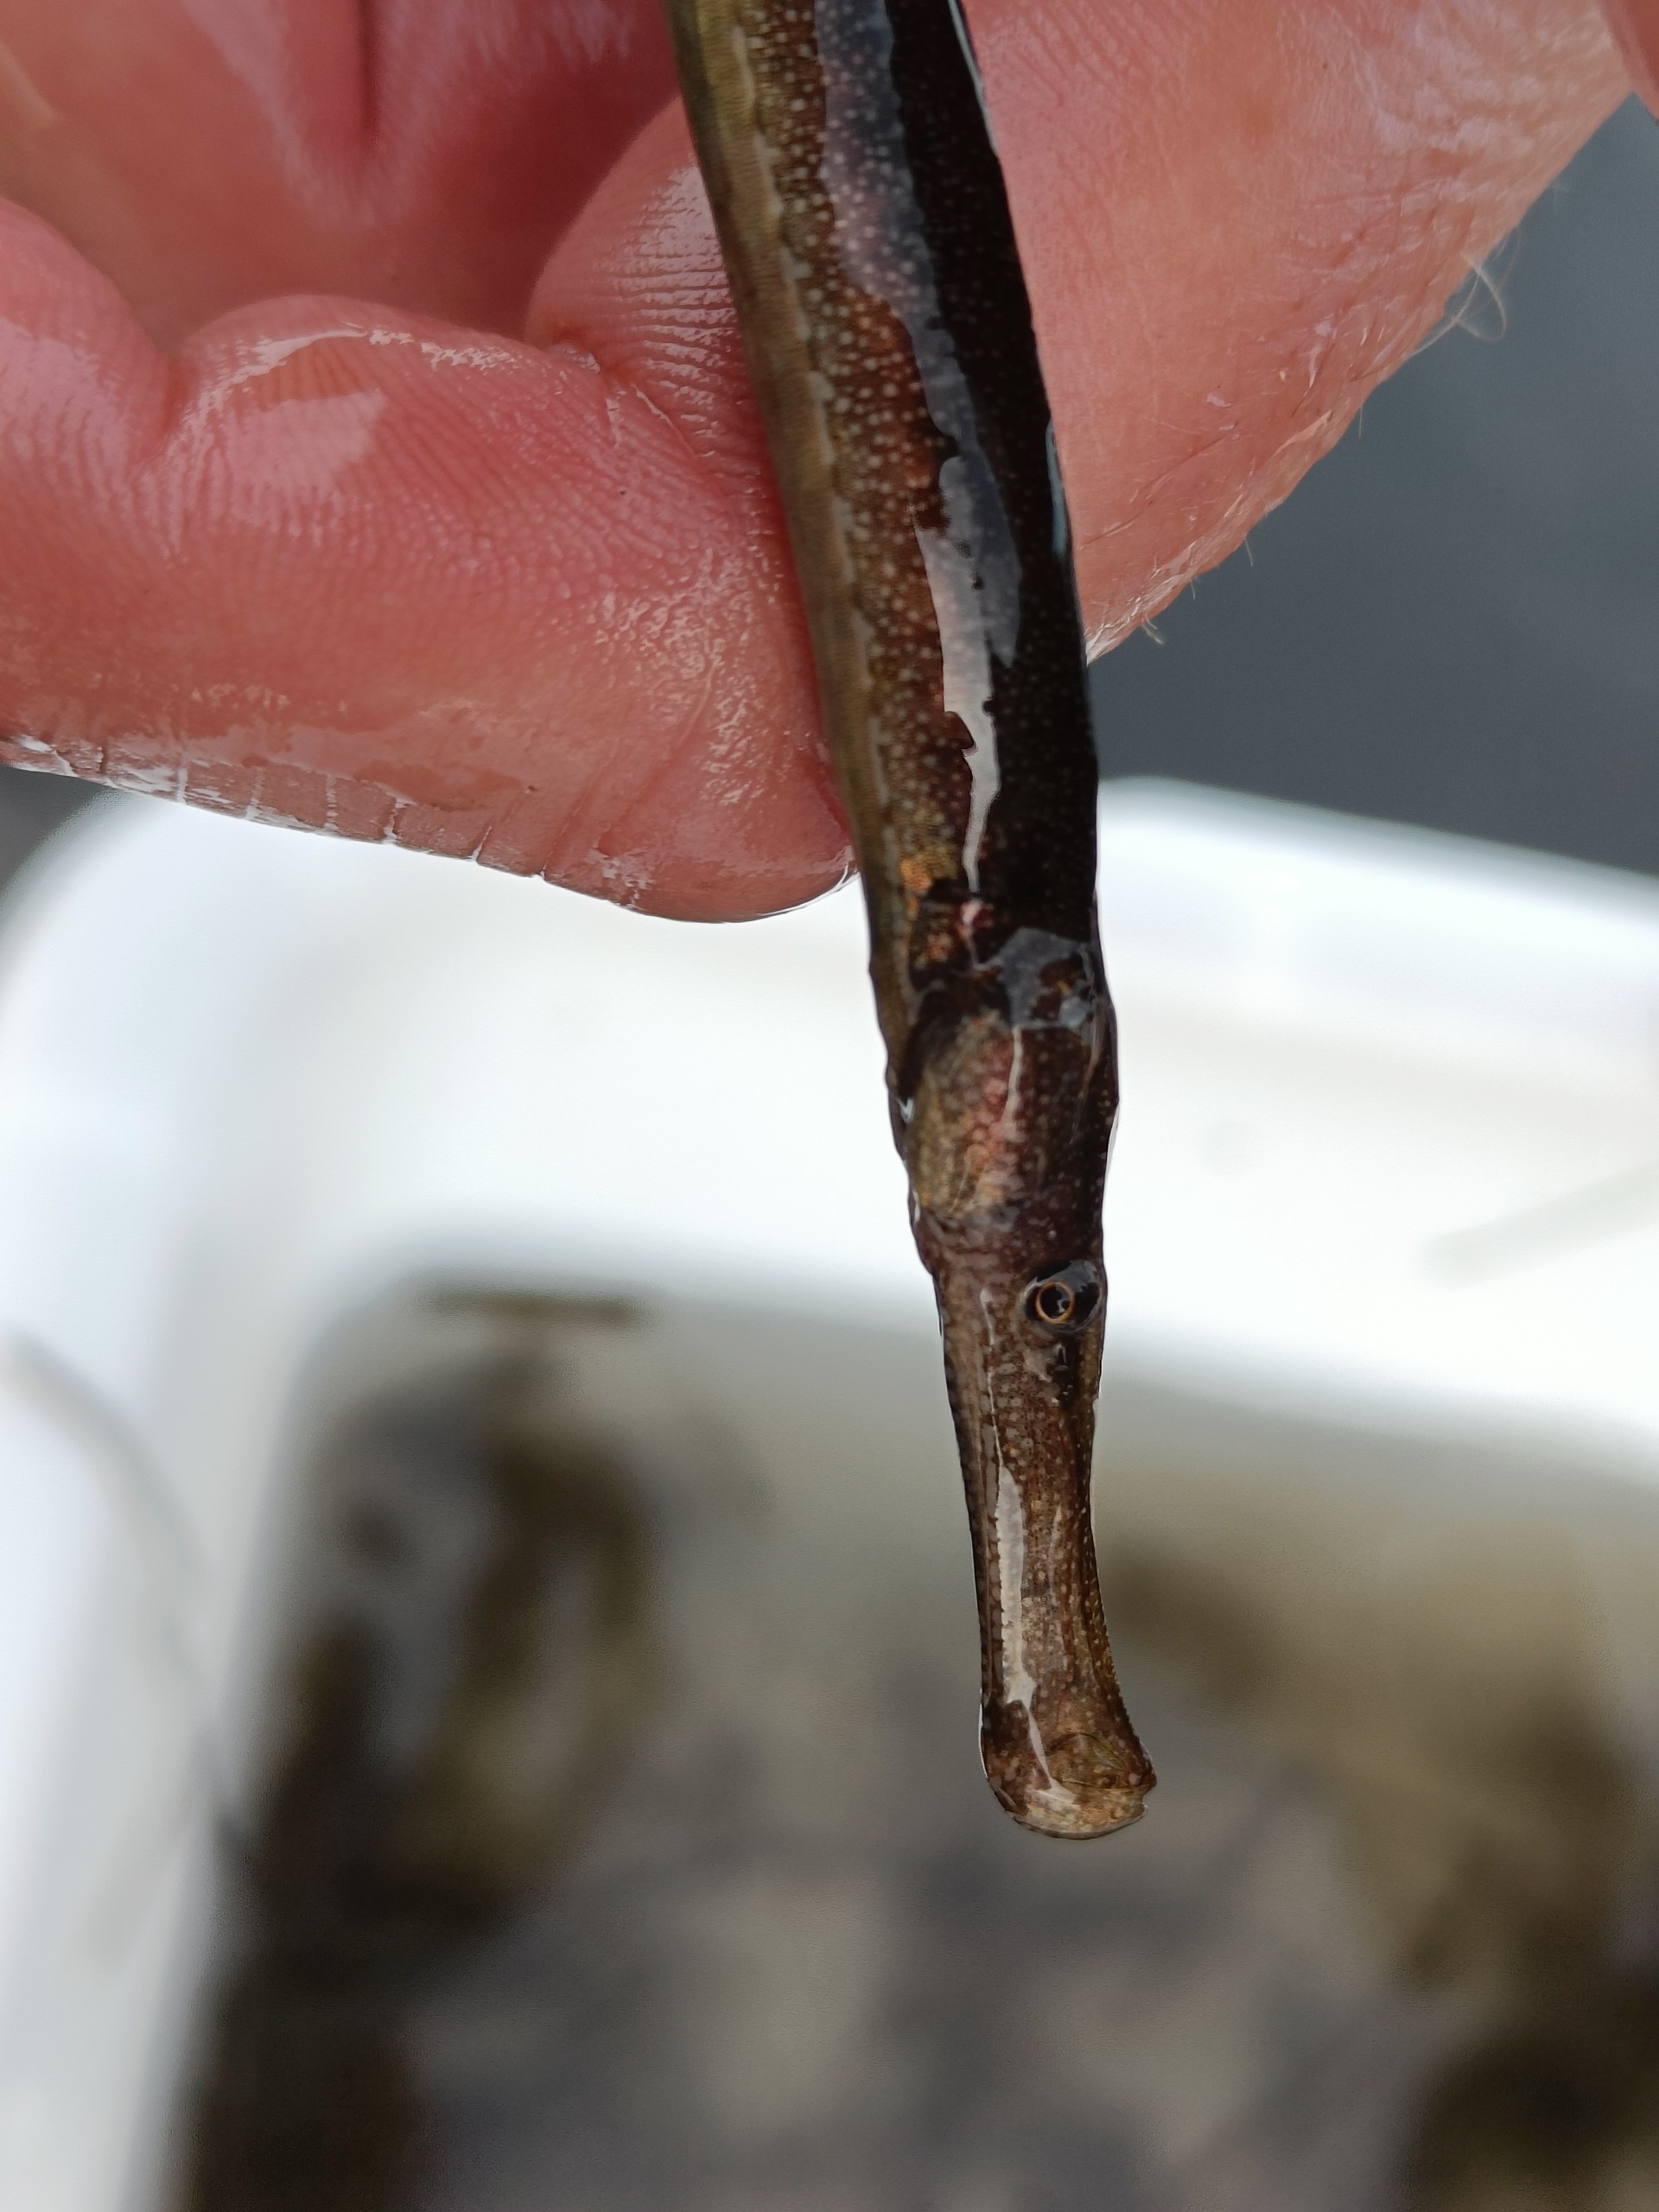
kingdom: Animalia
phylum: Chordata
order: Syngnathiformes
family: Syngnathidae
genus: Syngnathus
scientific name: Syngnathus typhle
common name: Almindelig tangnål
